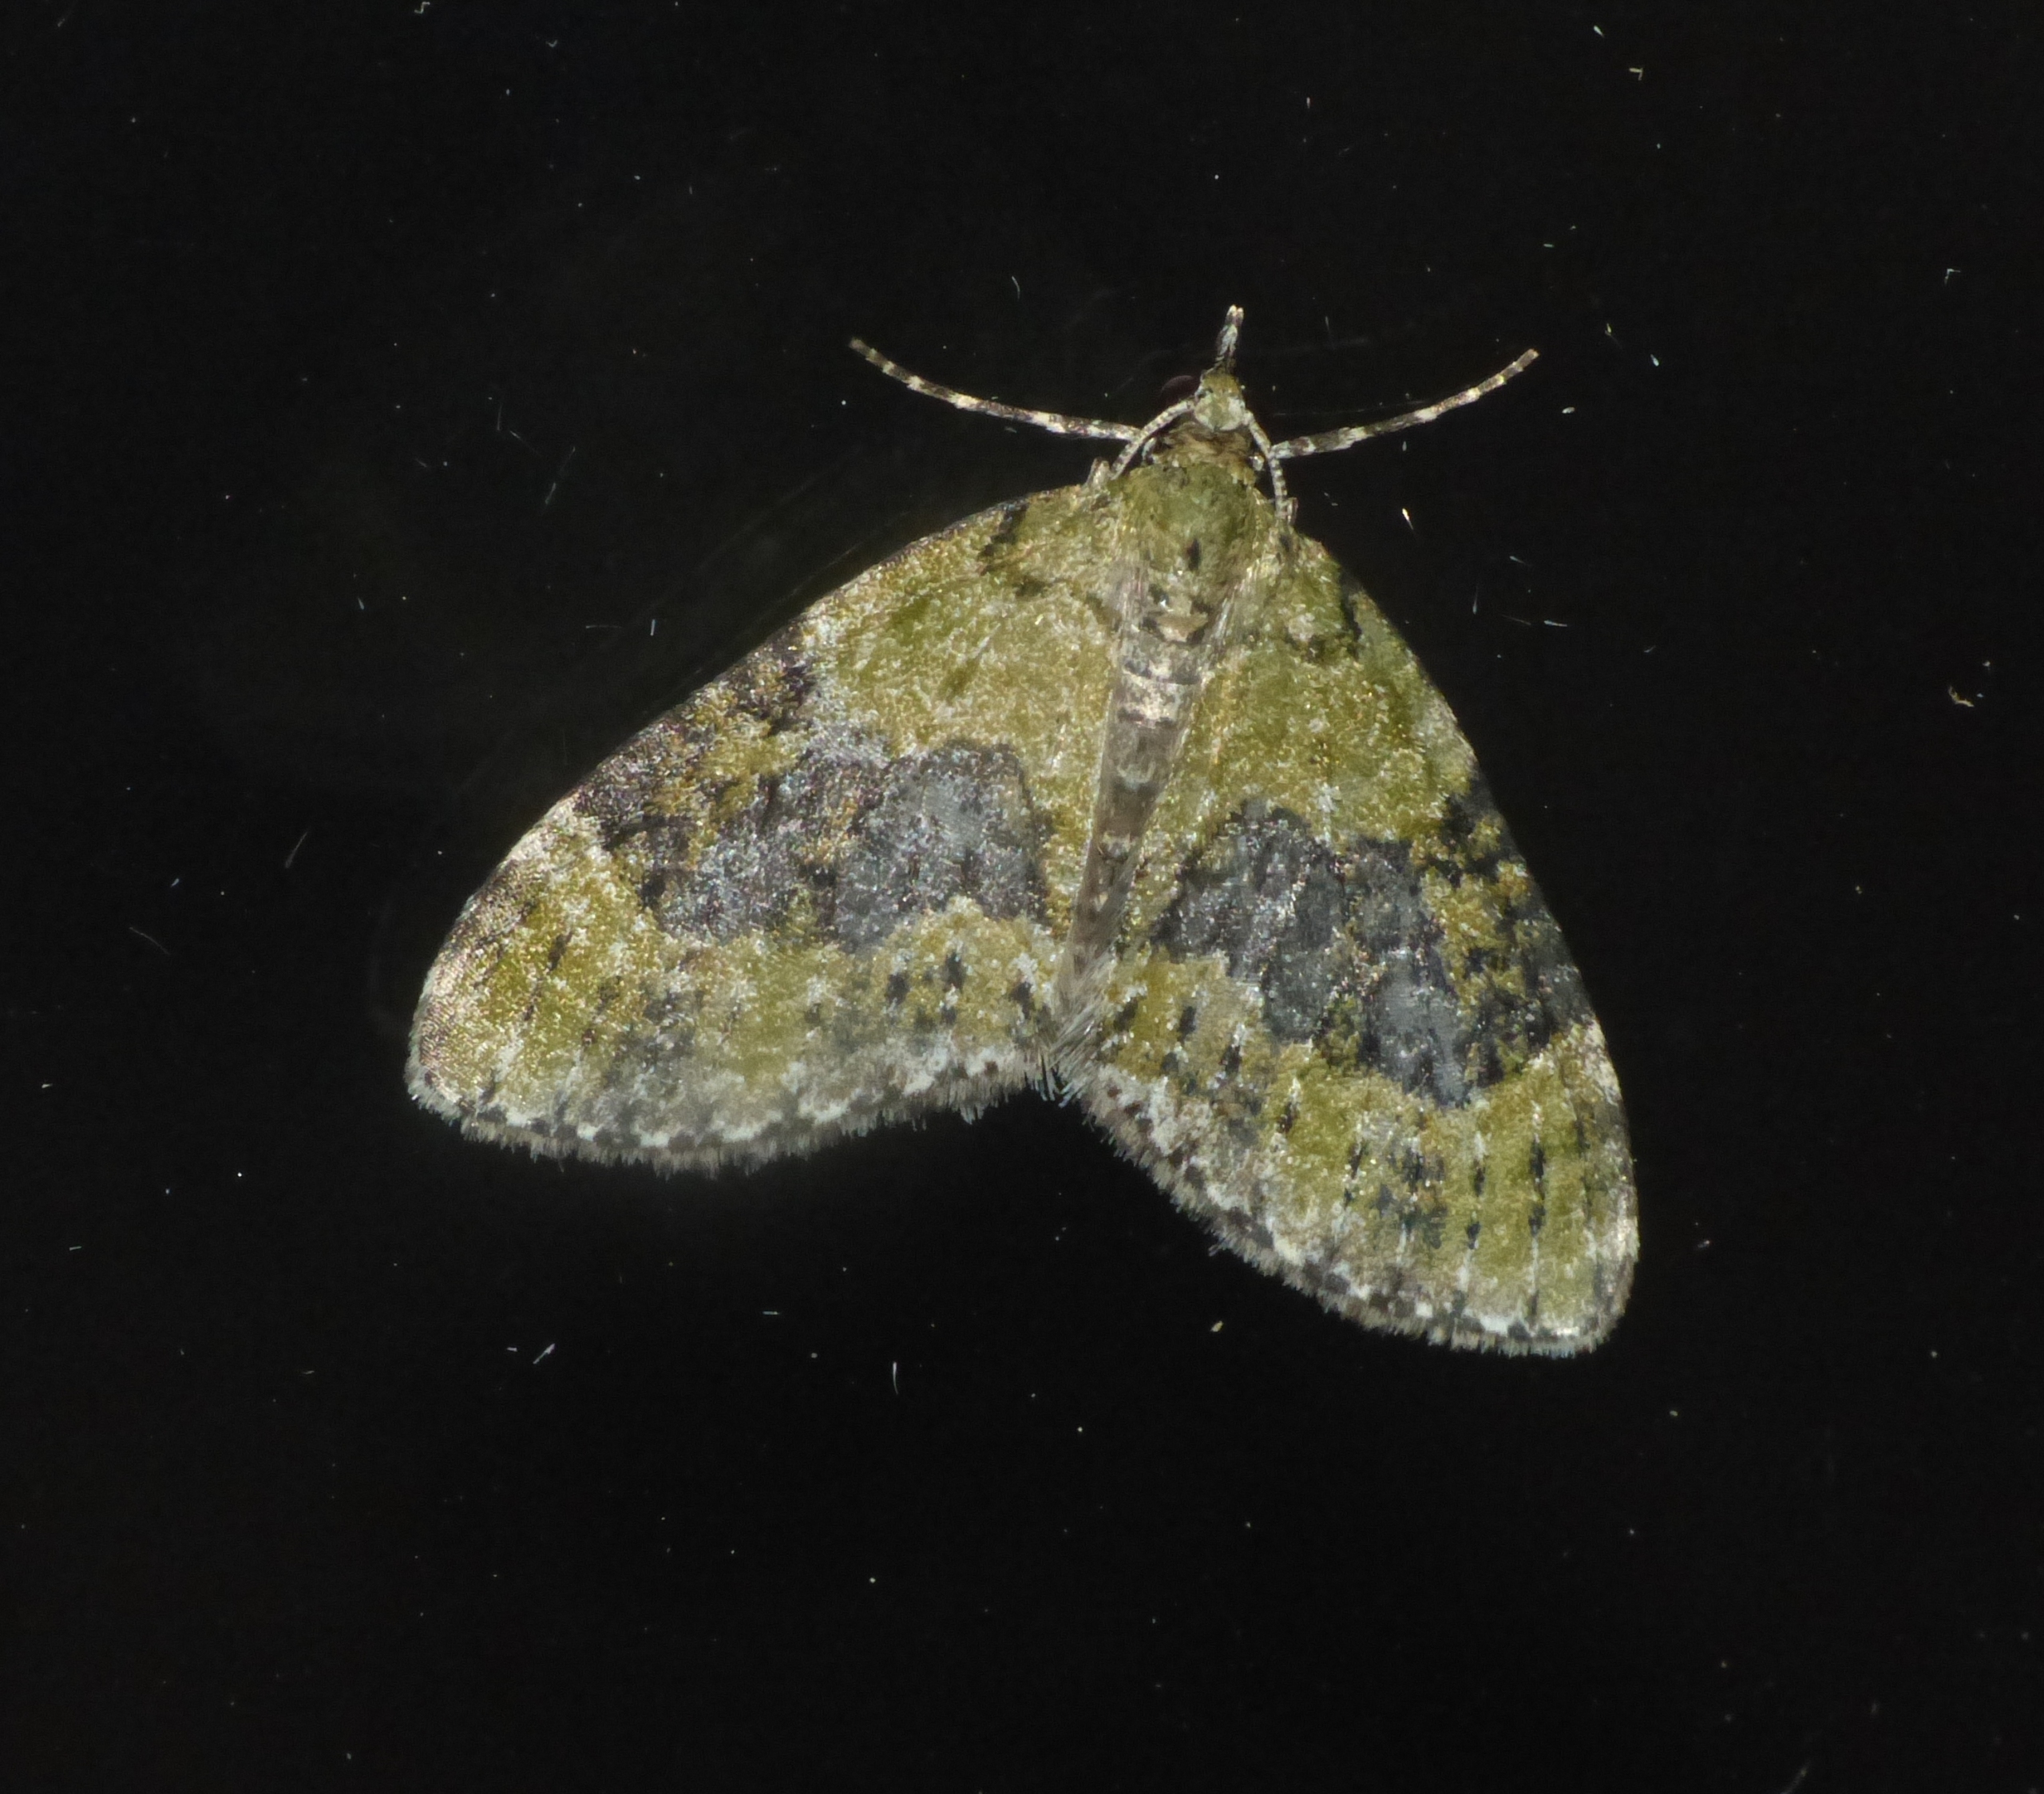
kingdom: Animalia
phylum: Arthropoda
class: Insecta
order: Lepidoptera
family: Geometridae
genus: Acasis
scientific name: Acasis viretata
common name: Tørstetræblomstmåler
